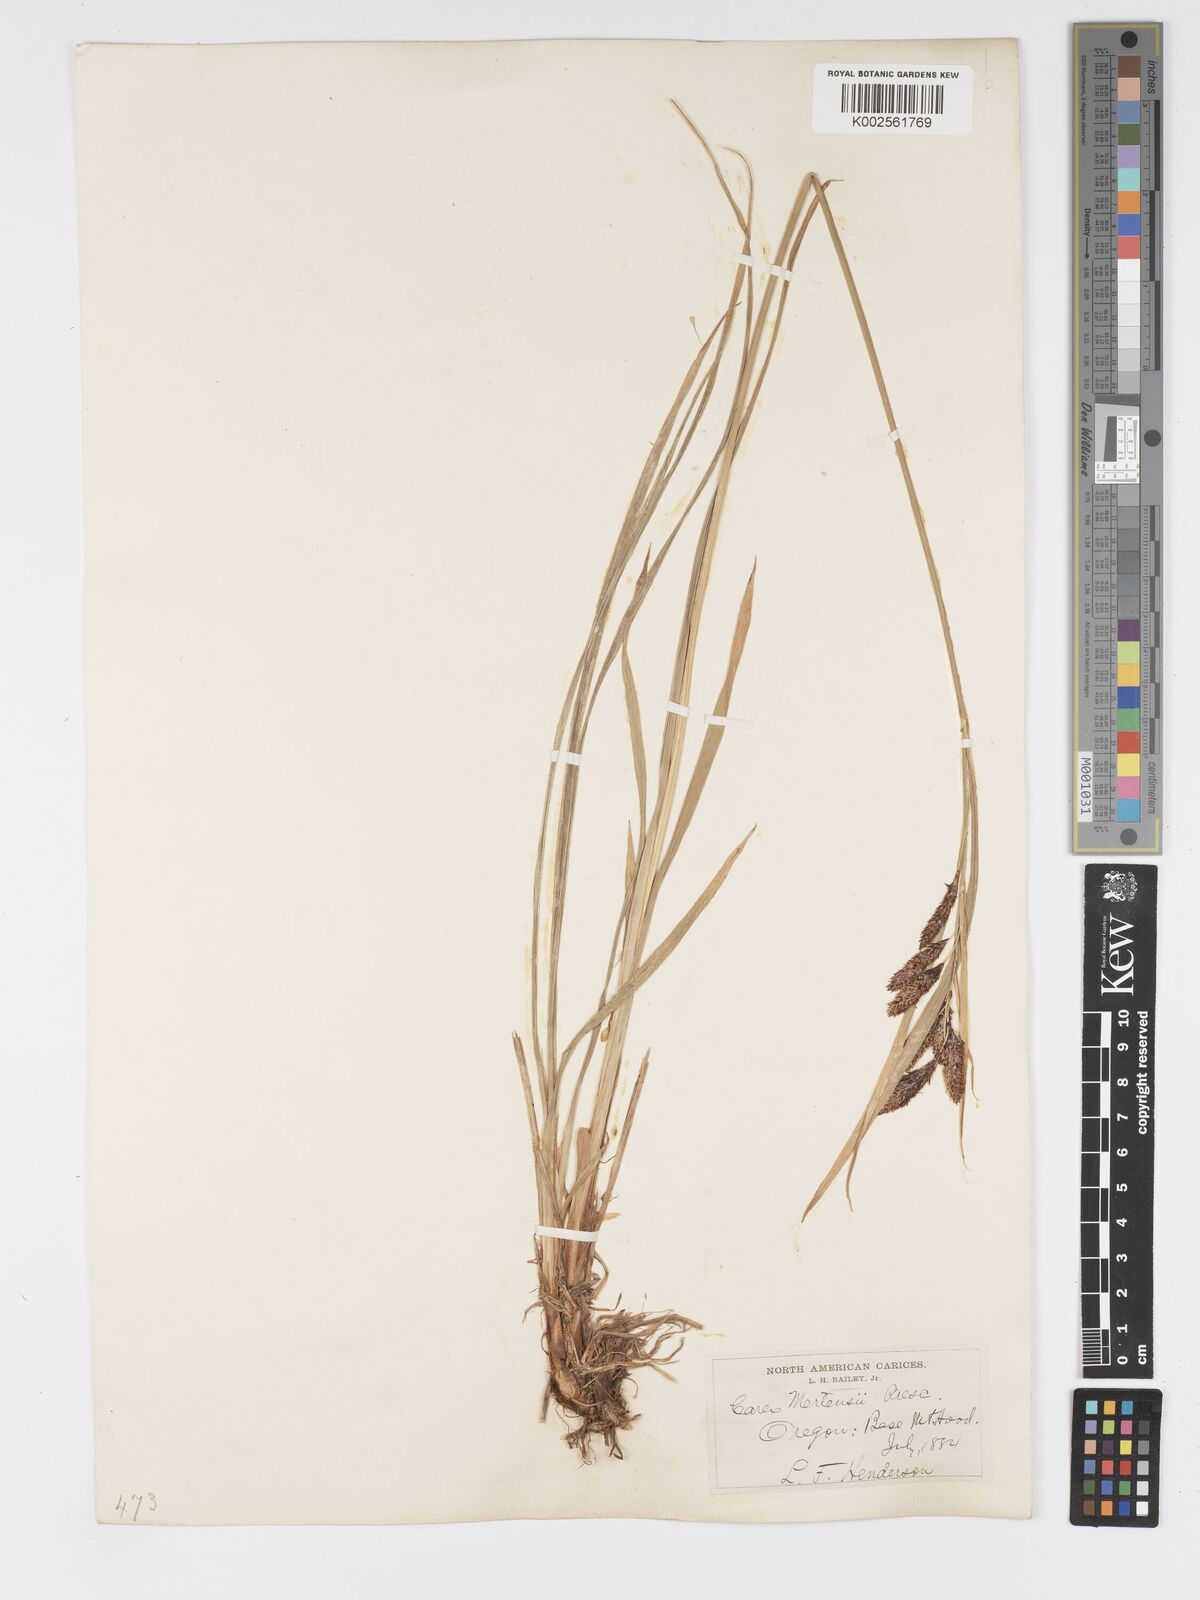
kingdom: Plantae
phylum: Tracheophyta
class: Liliopsida
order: Poales
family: Cyperaceae
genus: Carex
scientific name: Carex mertensii
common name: Mertens' sedge
